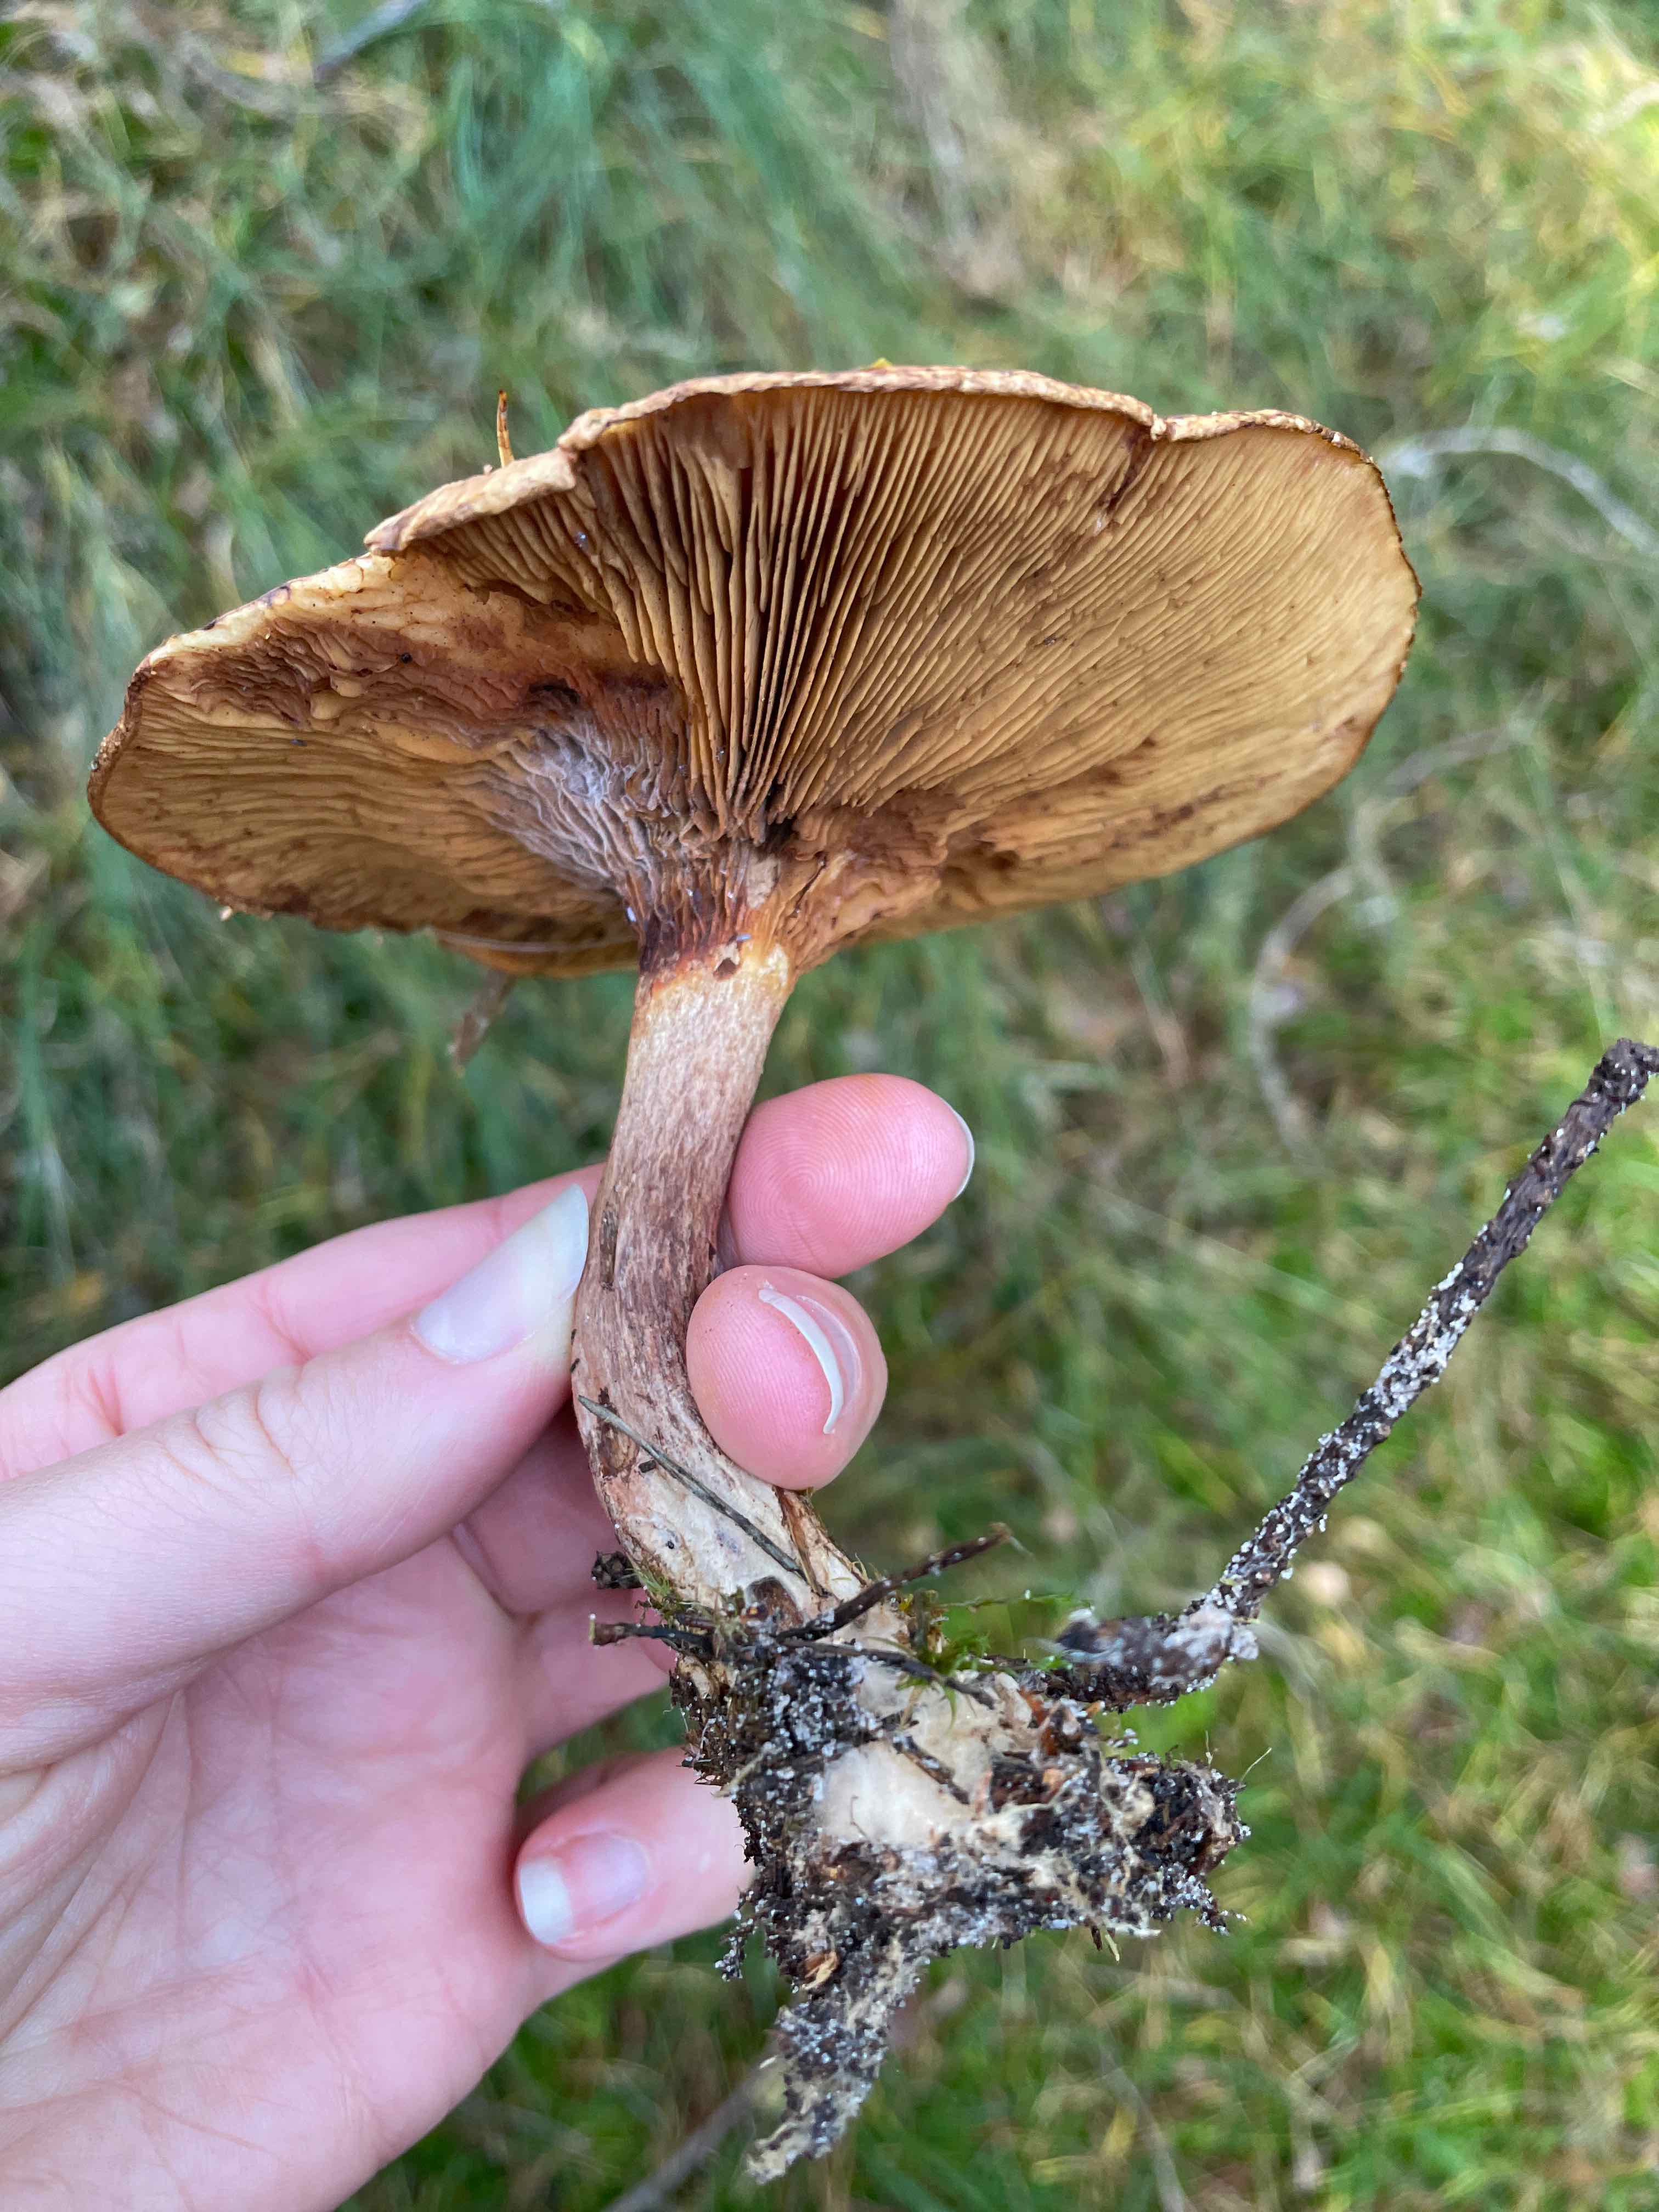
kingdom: Fungi
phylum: Basidiomycota
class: Agaricomycetes
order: Boletales
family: Paxillaceae
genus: Paxillus
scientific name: Paxillus
